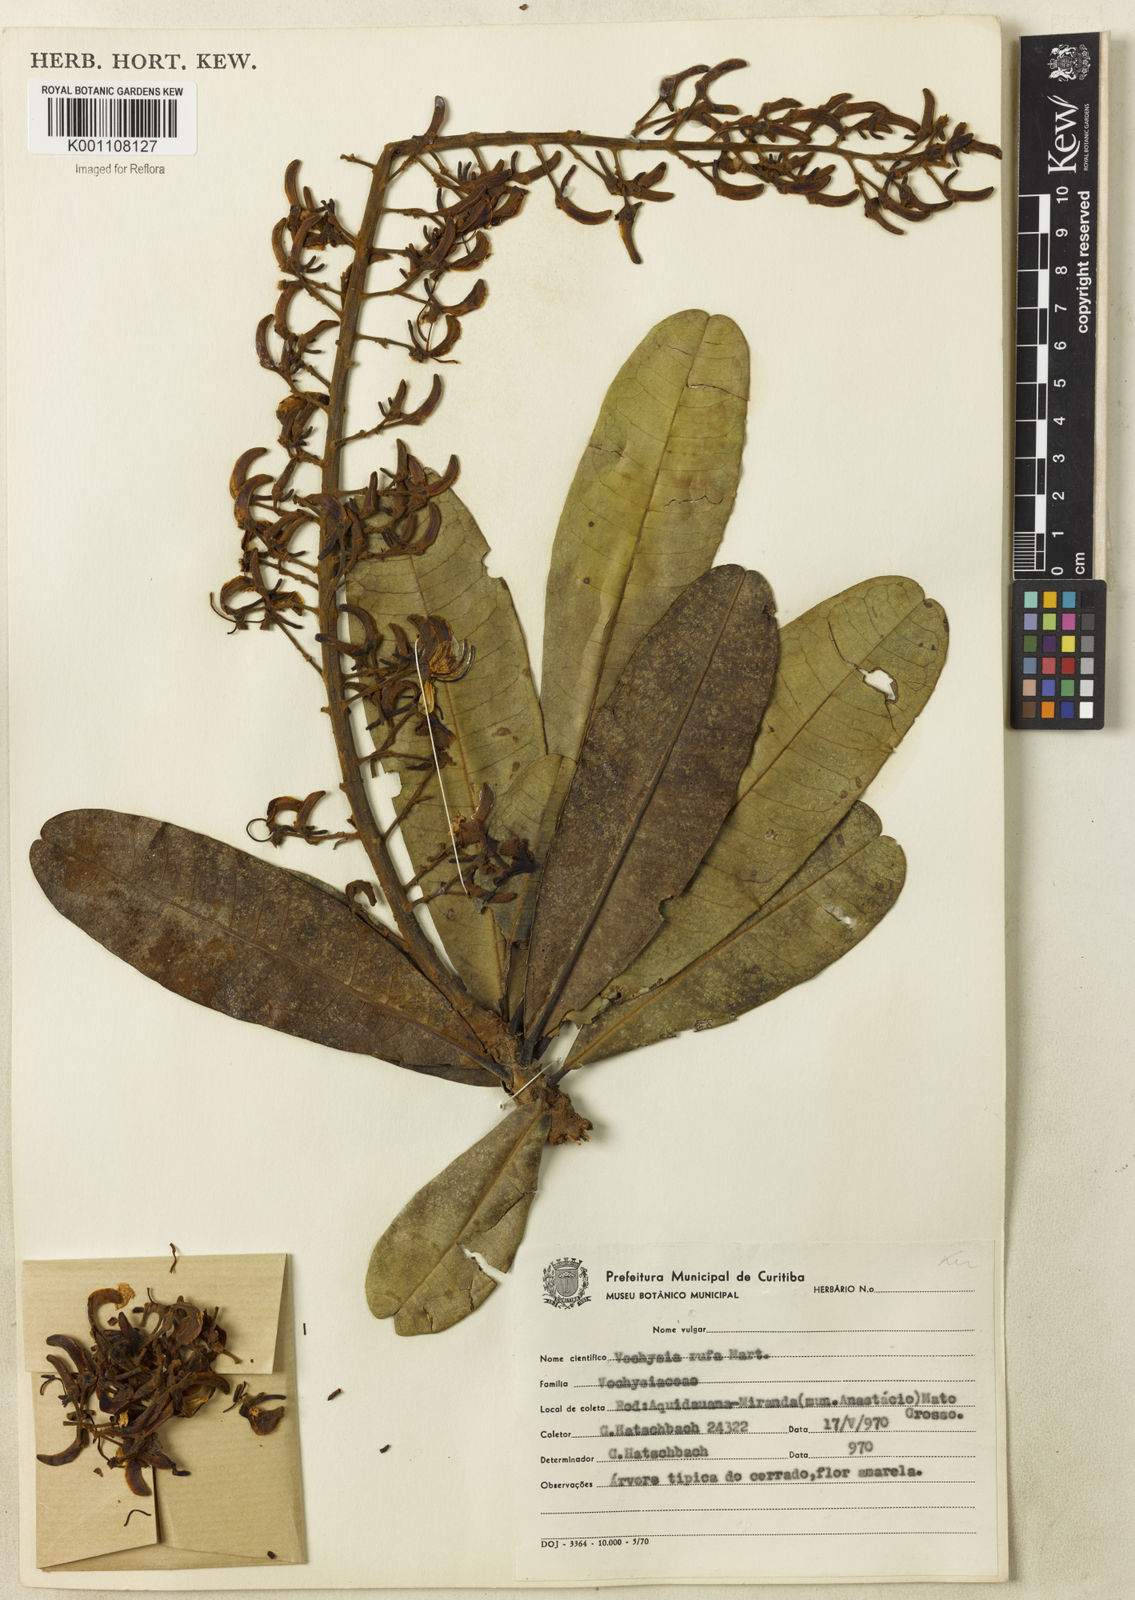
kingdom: Plantae
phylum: Tracheophyta
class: Magnoliopsida
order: Myrtales
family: Vochysiaceae
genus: Vochysia
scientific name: Vochysia rufa
